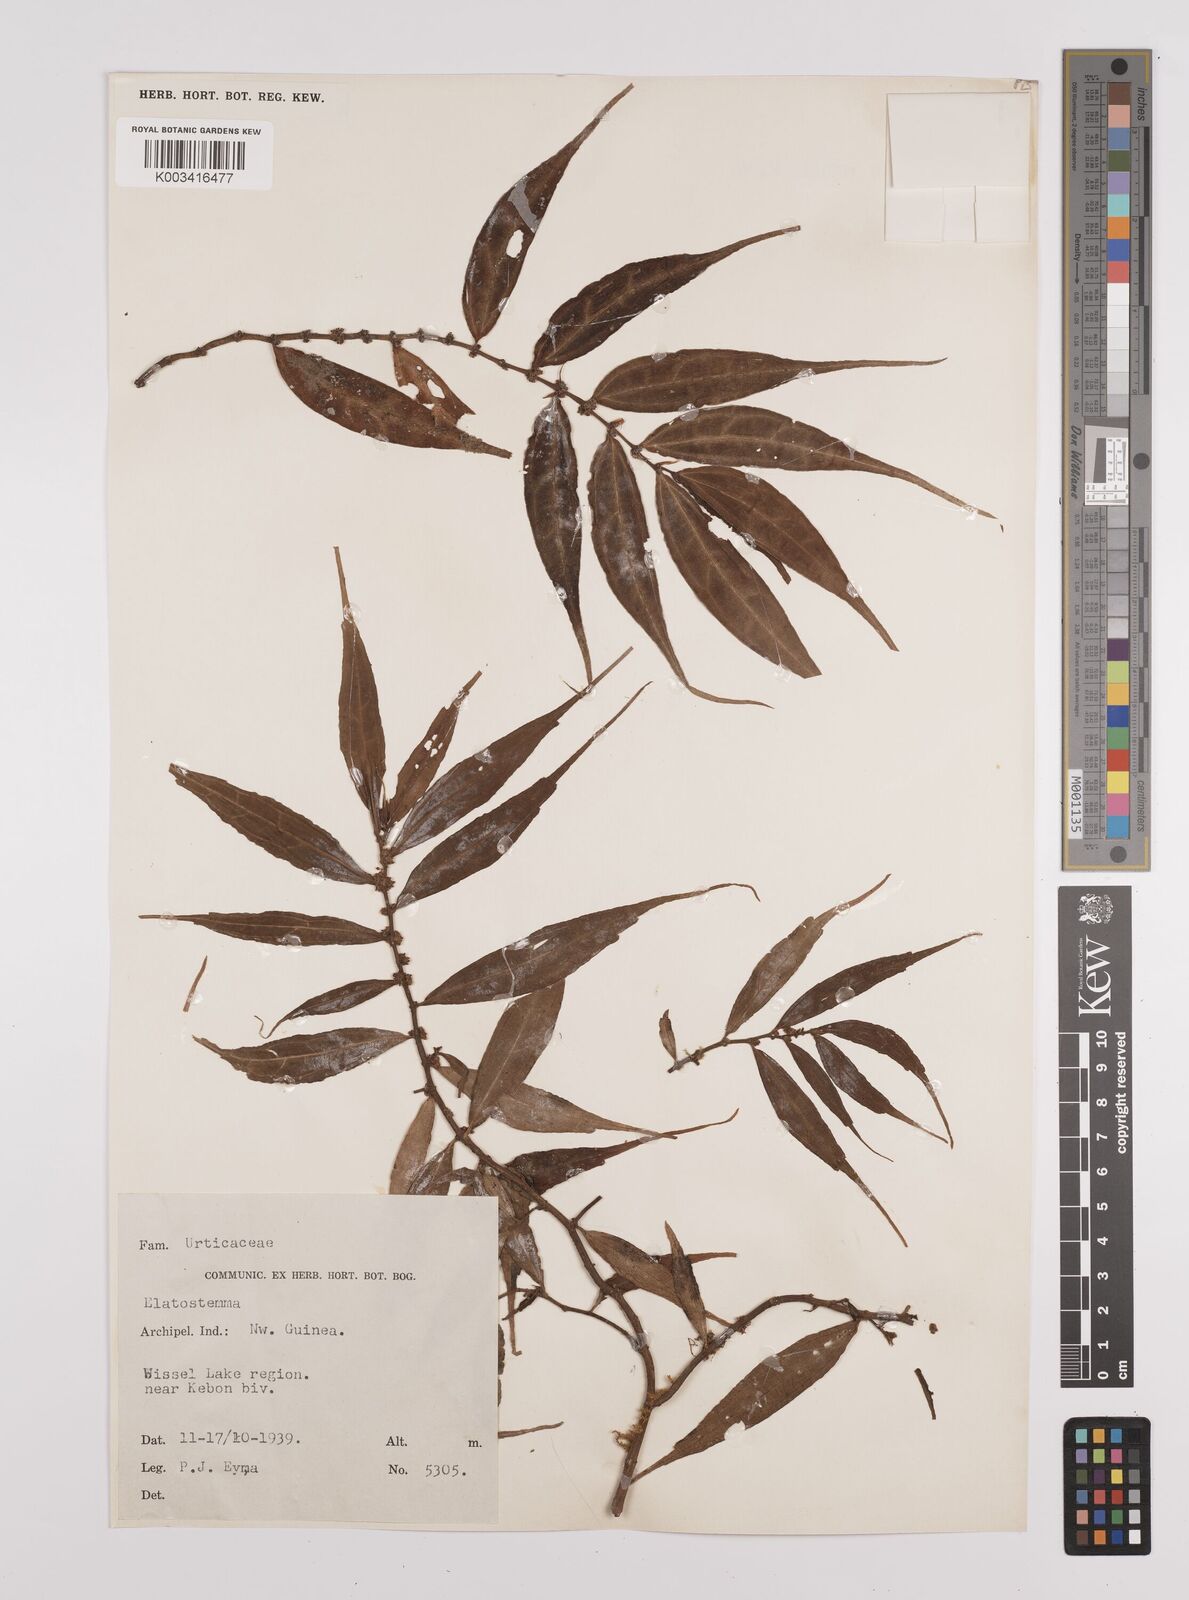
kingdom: Plantae
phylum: Tracheophyta
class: Magnoliopsida
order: Rosales
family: Urticaceae
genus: Elatostema
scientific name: Elatostema
